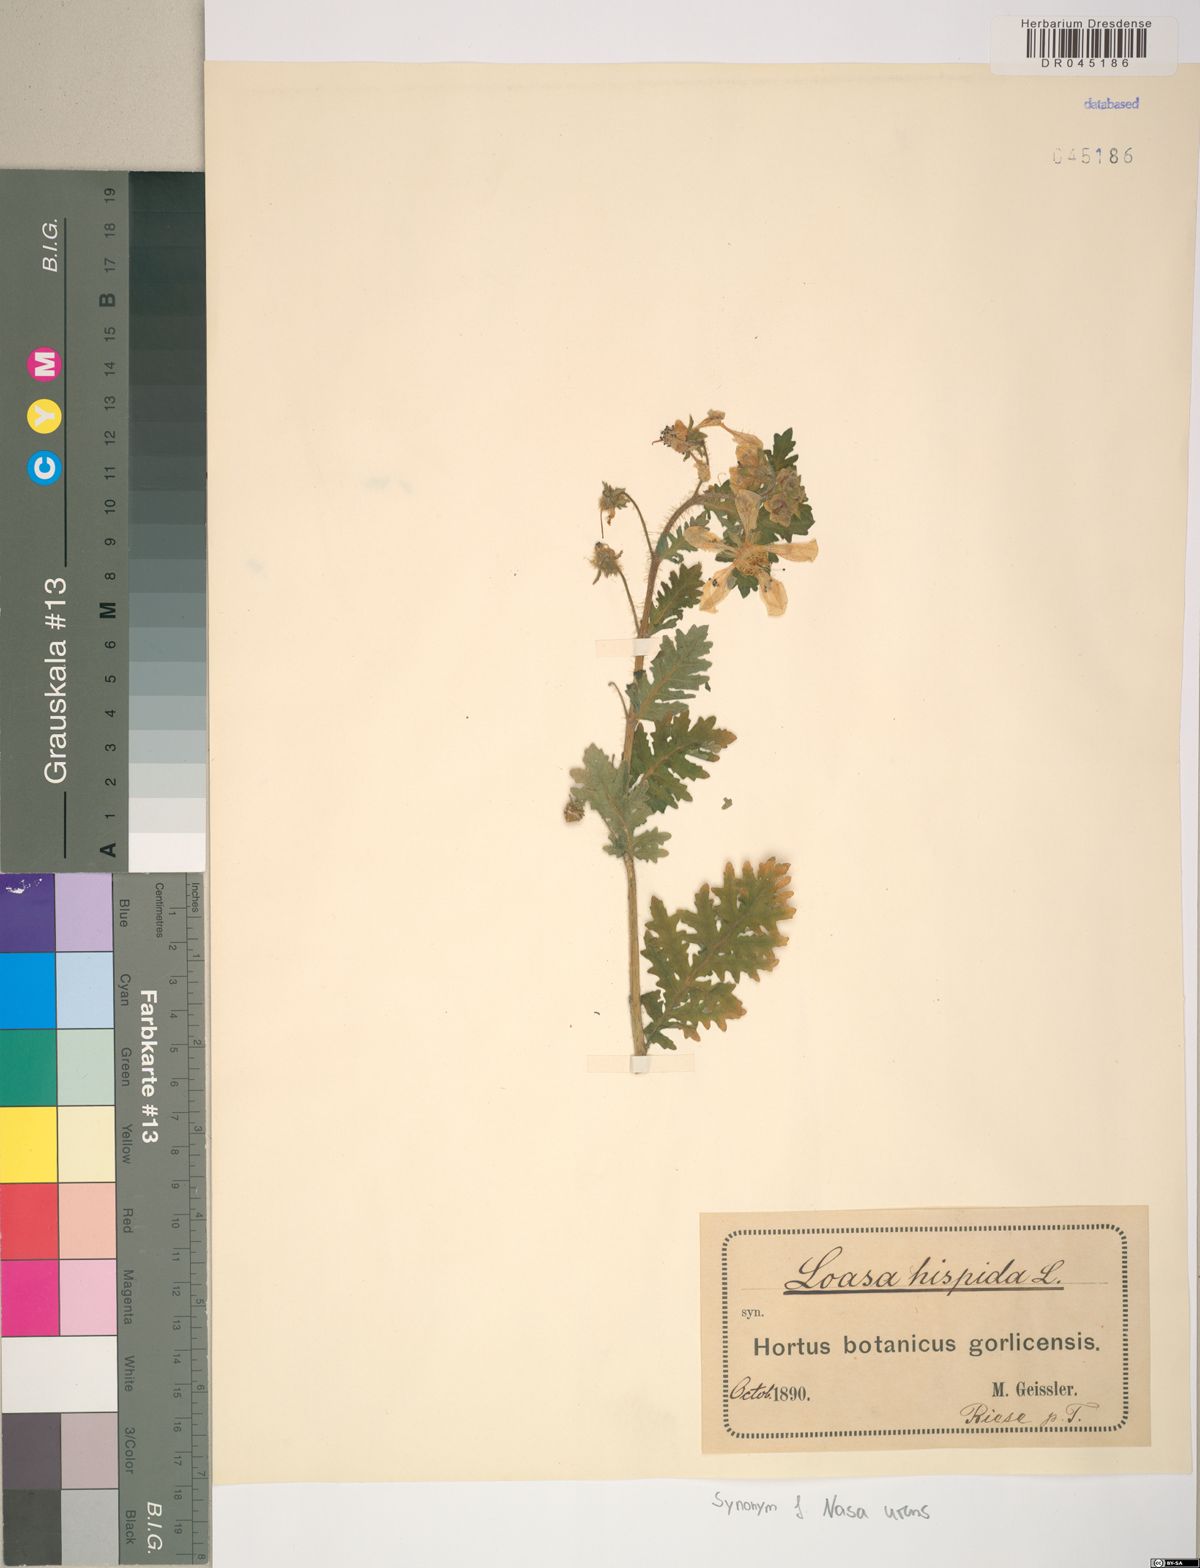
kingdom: Plantae
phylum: Tracheophyta
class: Magnoliopsida
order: Cornales
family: Loasaceae
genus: Nasa
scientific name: Nasa urens
